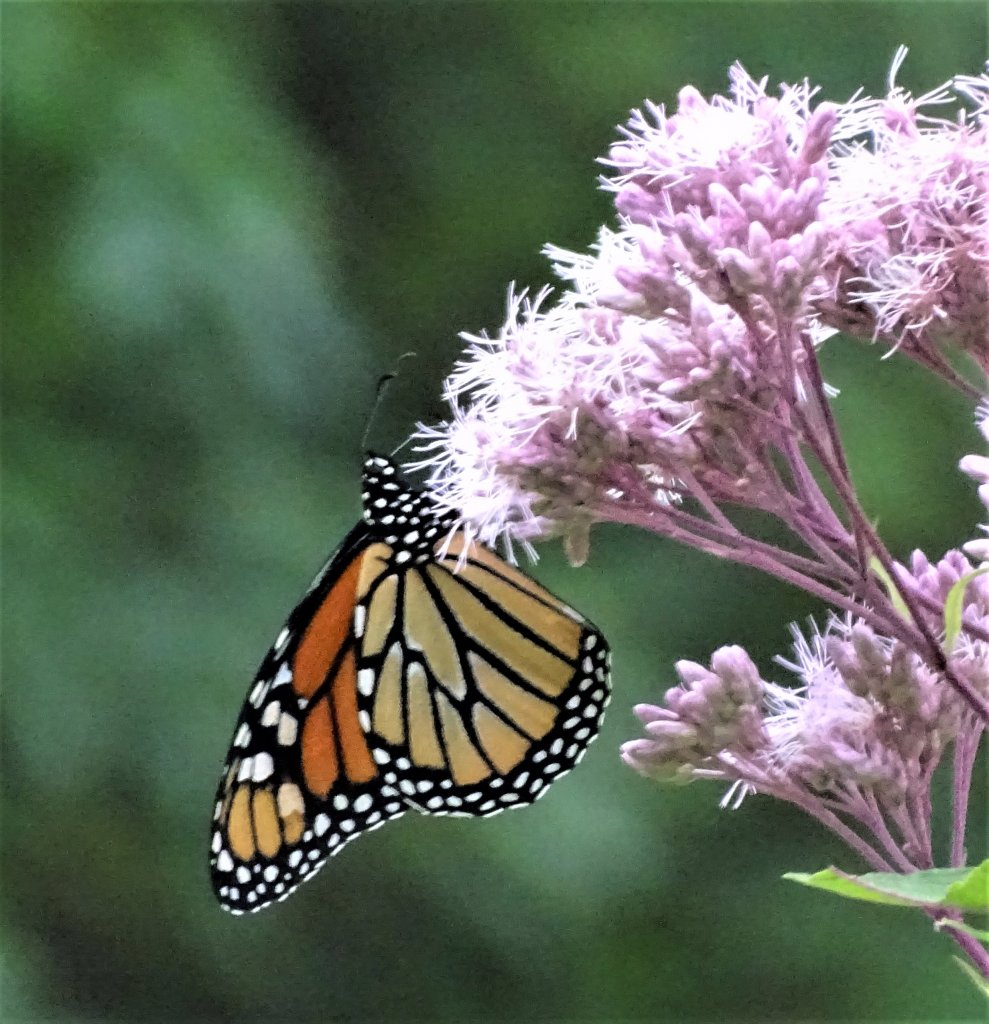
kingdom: Animalia
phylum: Arthropoda
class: Insecta
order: Lepidoptera
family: Nymphalidae
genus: Danaus
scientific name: Danaus plexippus
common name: Monarch
